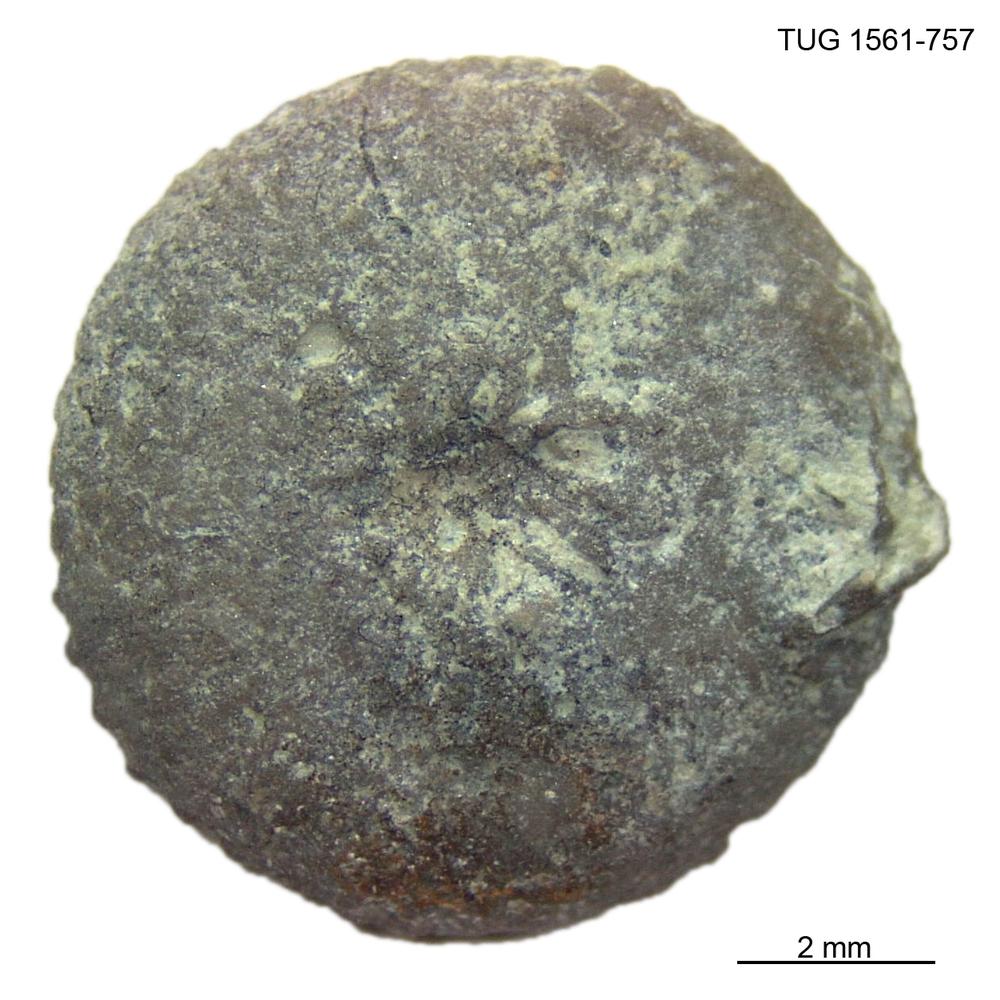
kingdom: Animalia
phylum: Cnidaria
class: Anthozoa
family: Palaeocyclidae
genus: Palaeocyclus
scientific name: Palaeocyclus Porpites porpita
